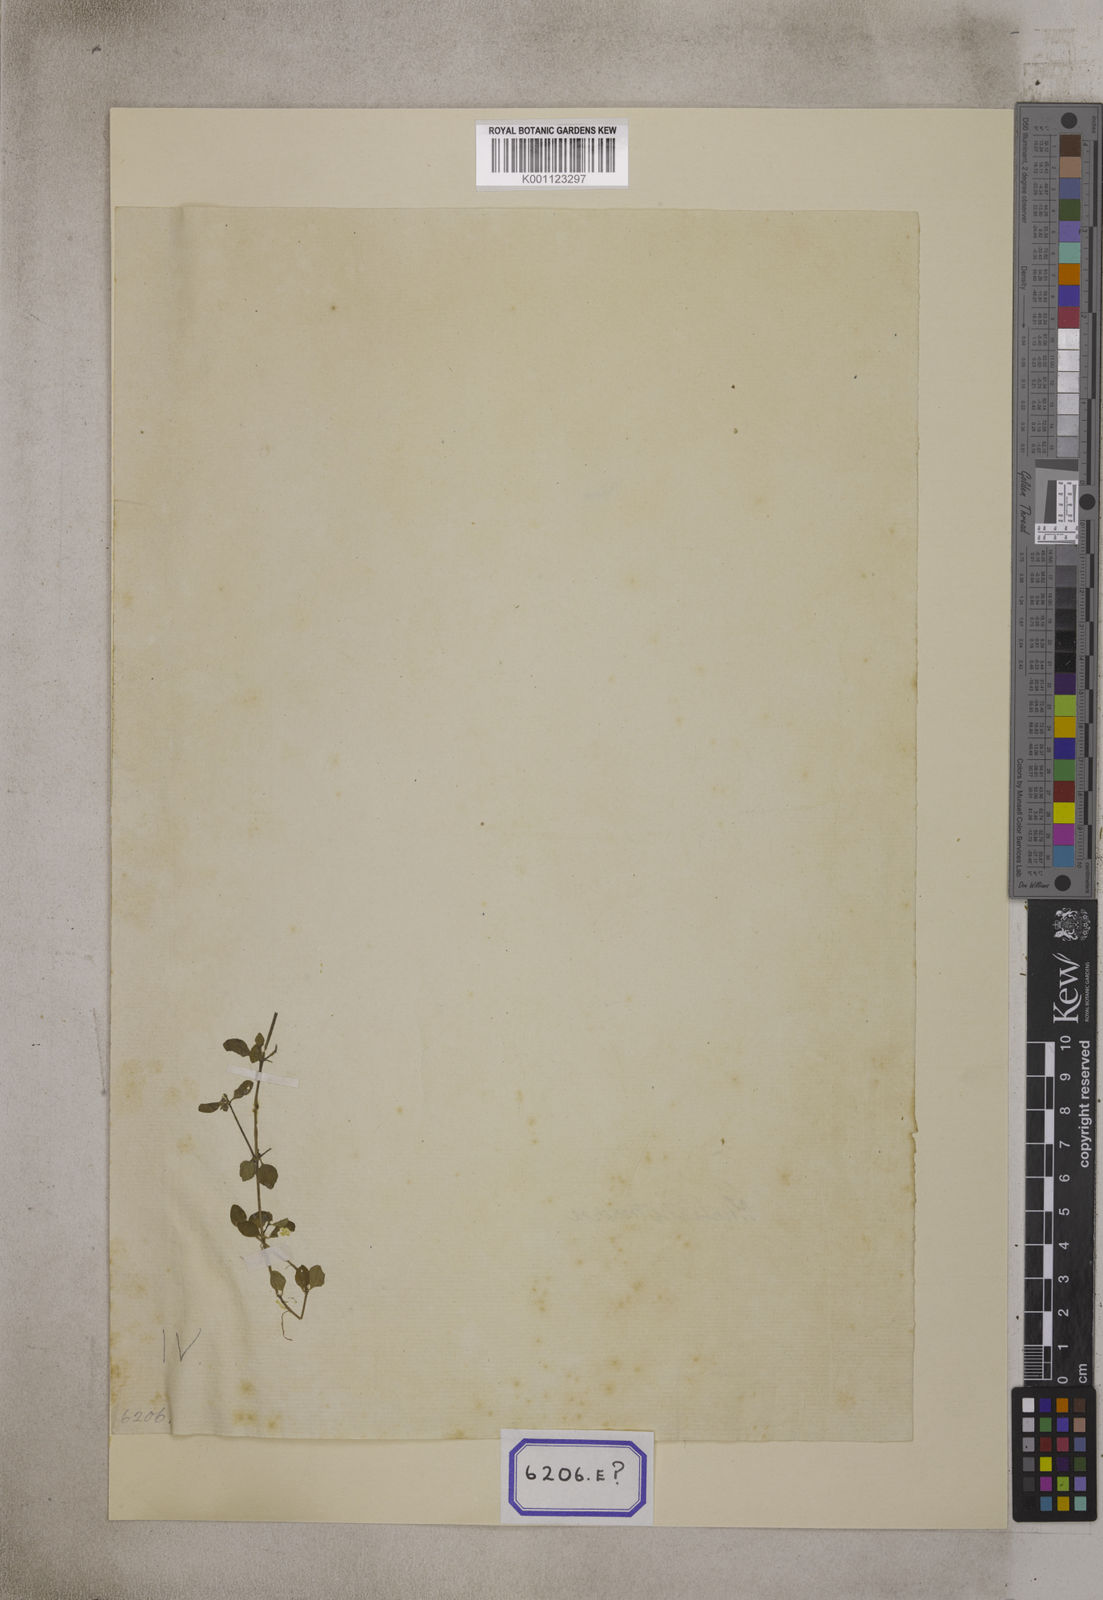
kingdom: Plantae
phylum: Tracheophyta
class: Magnoliopsida
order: Gentianales
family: Rubiaceae
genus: Dentella
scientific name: Dentella repens
